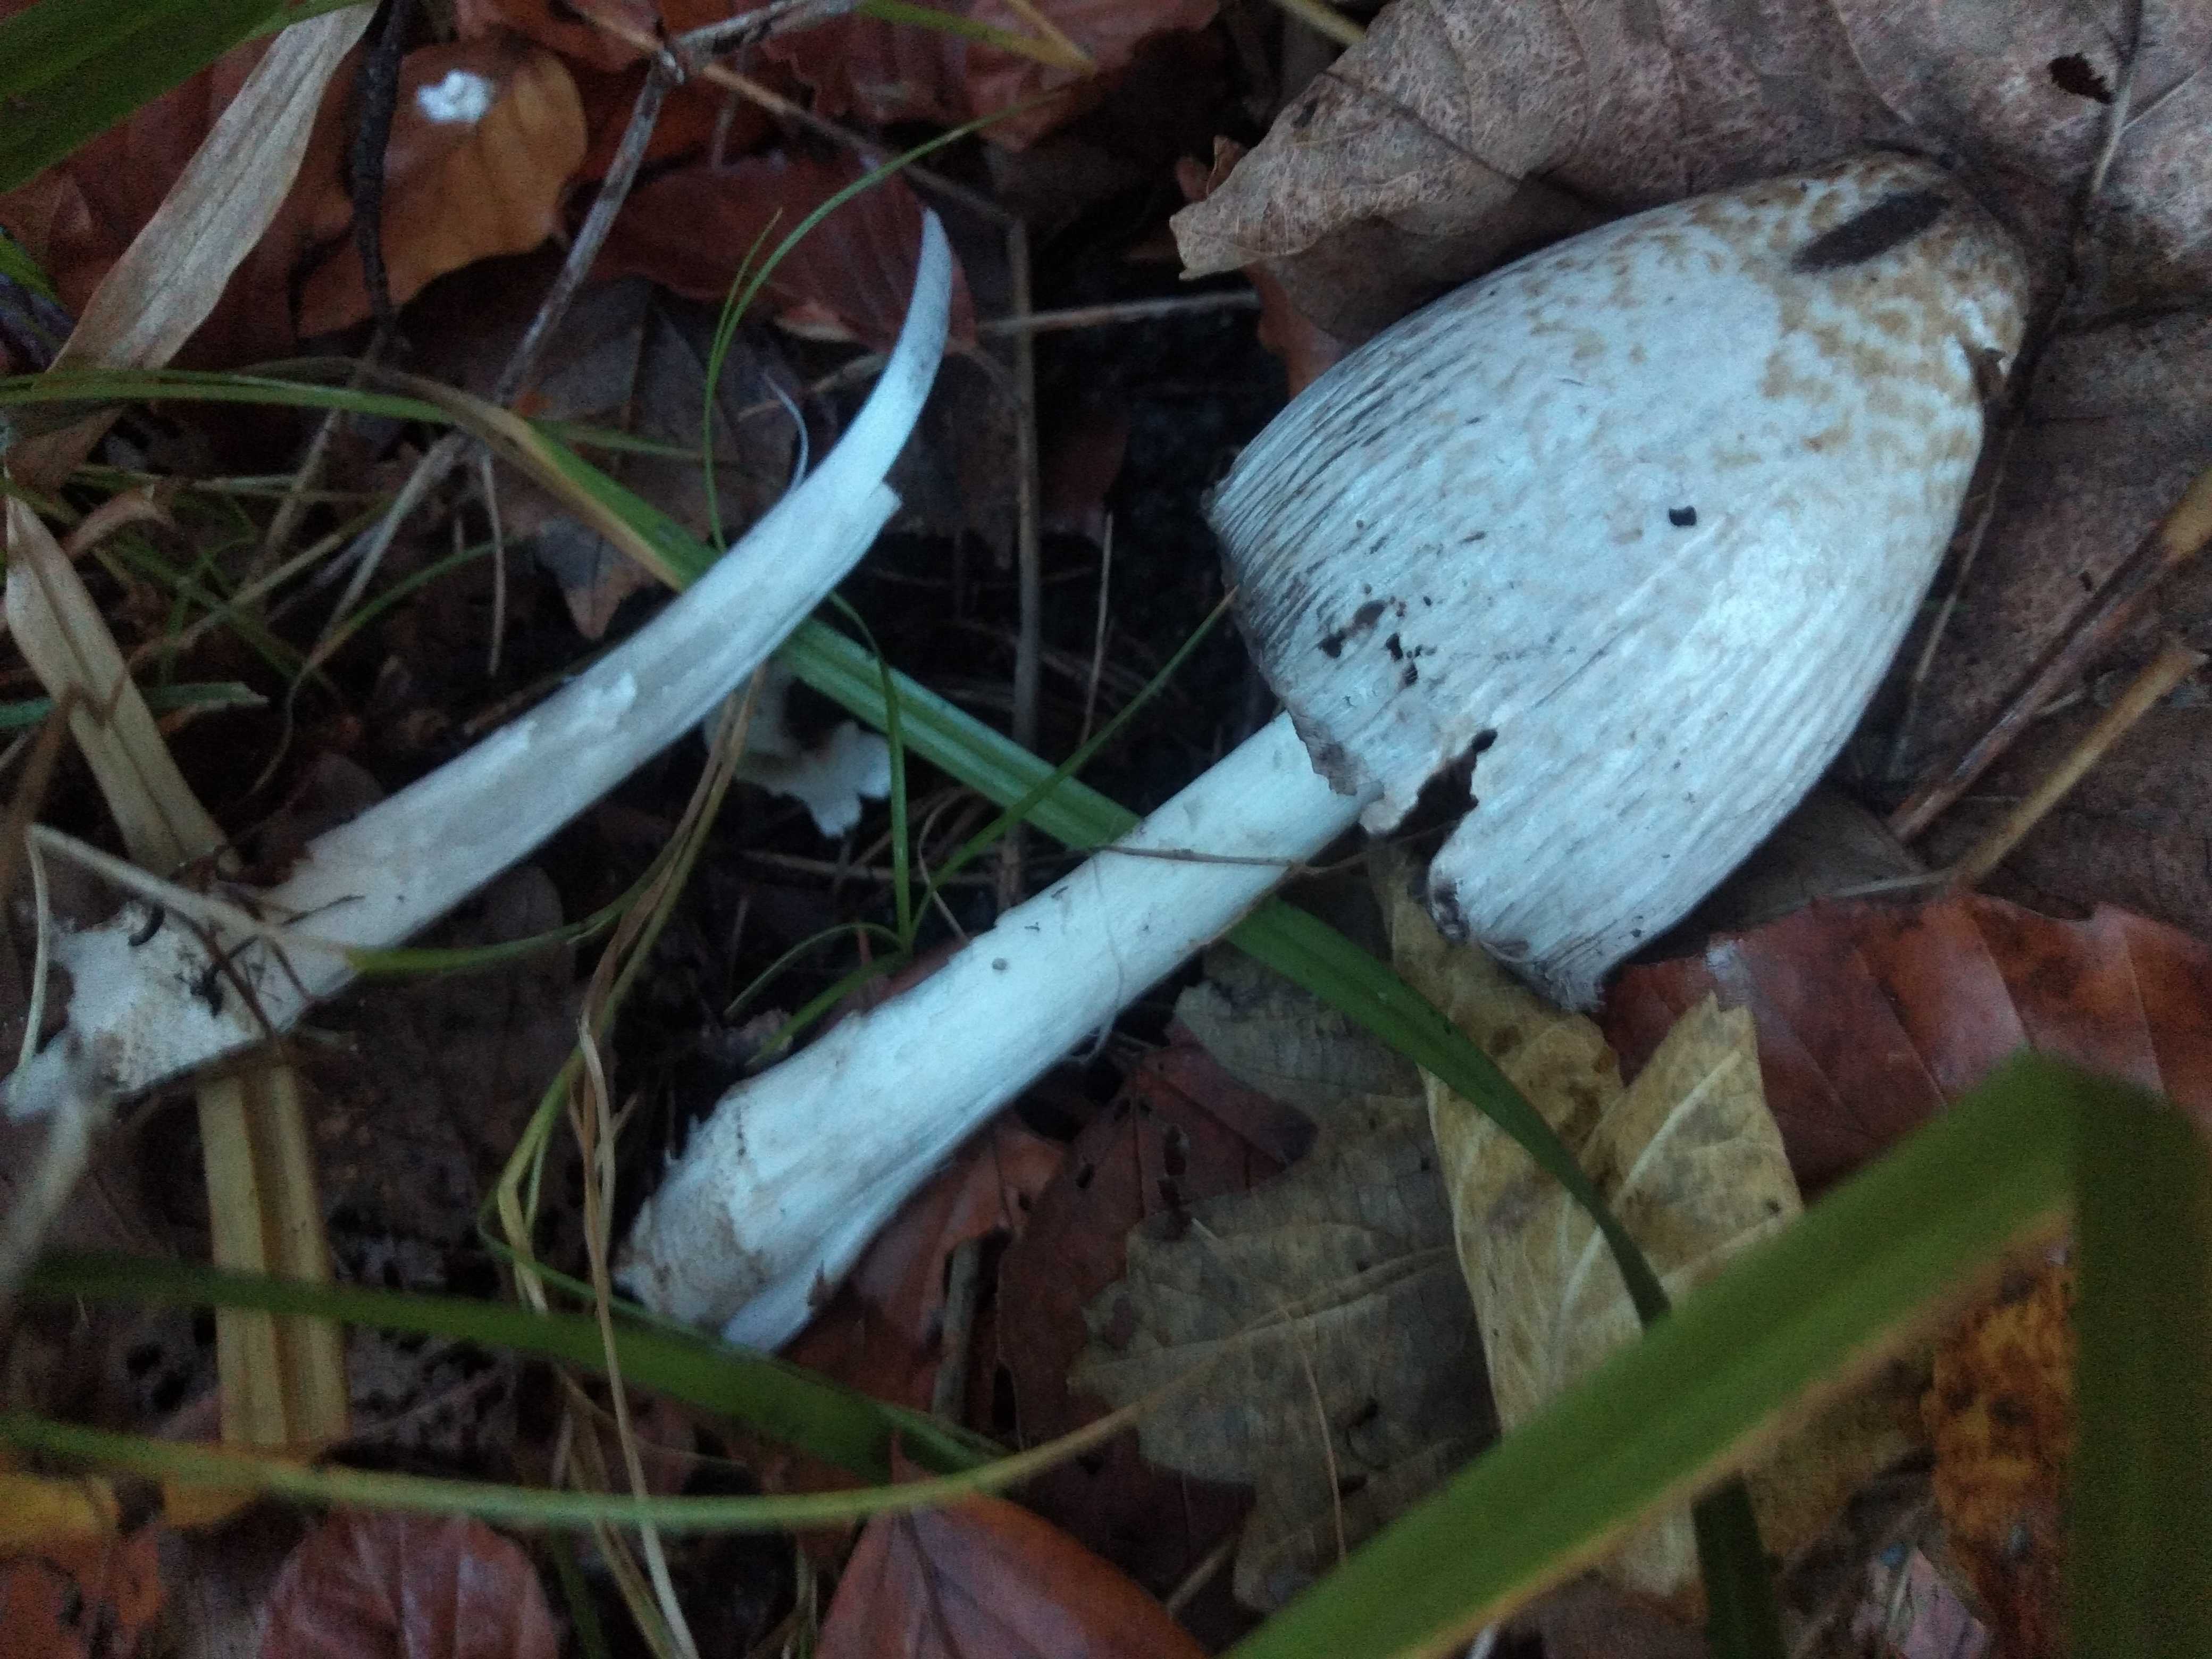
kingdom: Fungi
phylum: Basidiomycota
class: Agaricomycetes
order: Agaricales
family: Psathyrellaceae
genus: Coprinopsis
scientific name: Coprinopsis romagnesiana
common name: brunskællet blækhat
